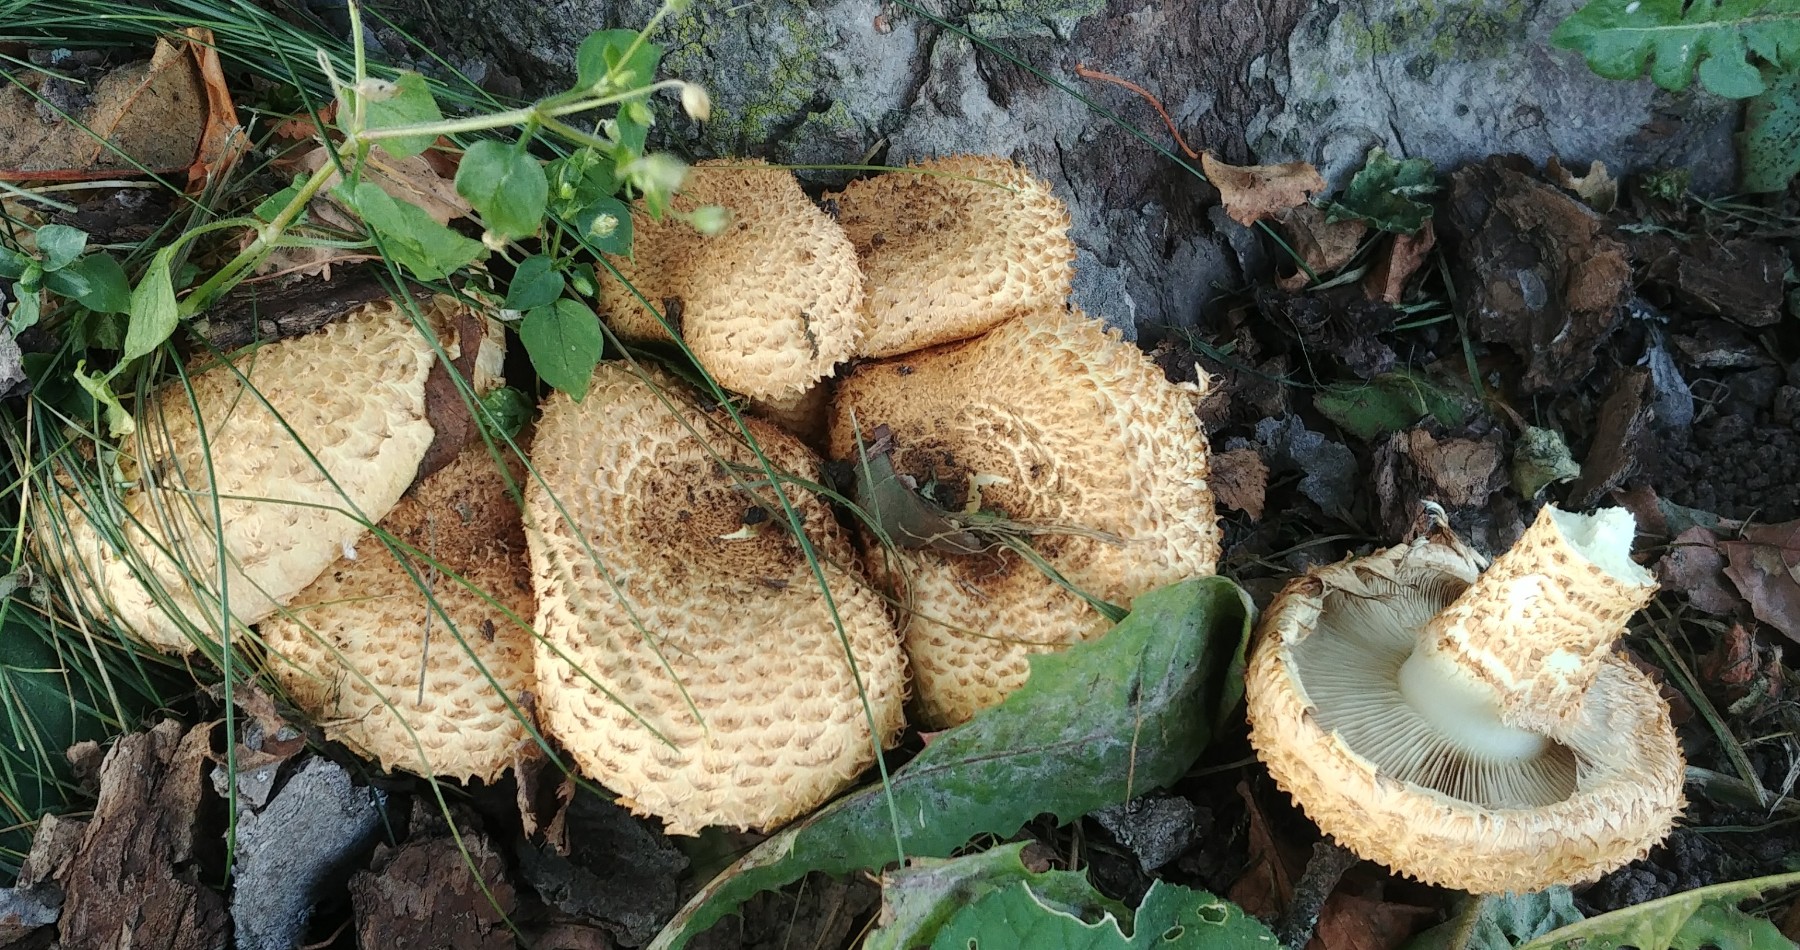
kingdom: Fungi
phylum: Basidiomycota
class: Agaricomycetes
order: Agaricales
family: Strophariaceae
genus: Pholiota
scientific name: Pholiota squarrosa
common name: krumskællet skælhat
